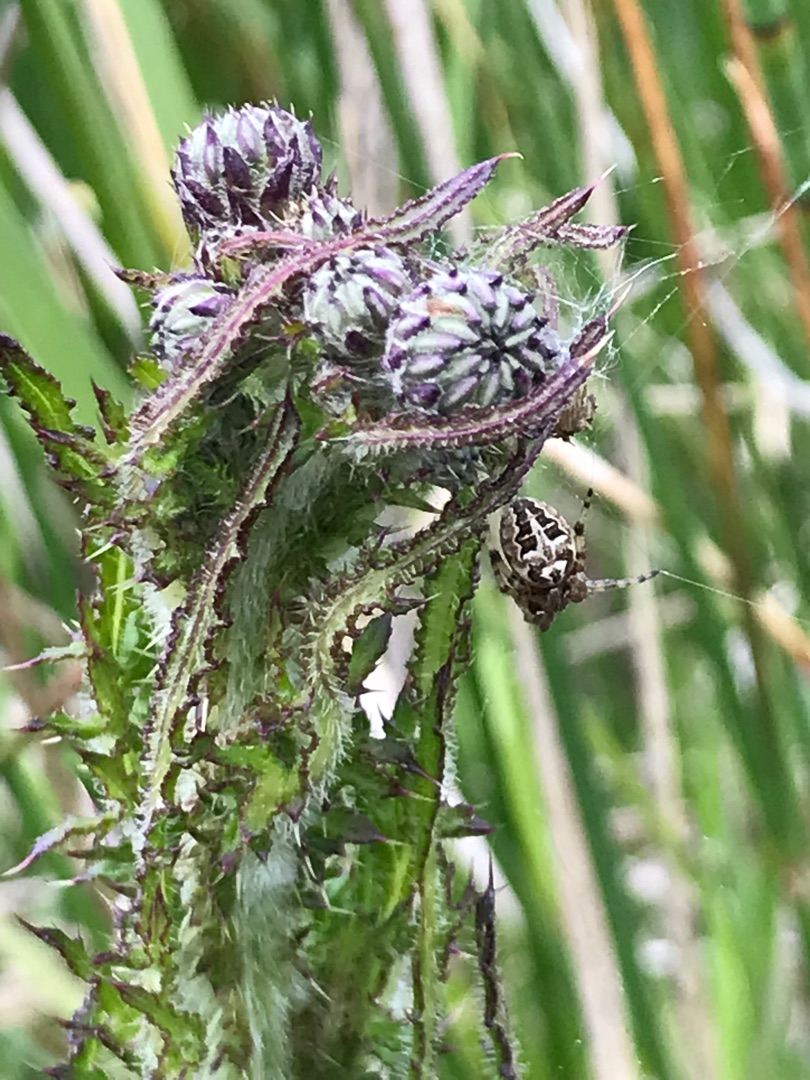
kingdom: Plantae
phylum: Tracheophyta
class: Magnoliopsida
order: Asterales
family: Asteraceae
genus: Cirsium
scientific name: Cirsium palustre
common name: Kær-tidsel
